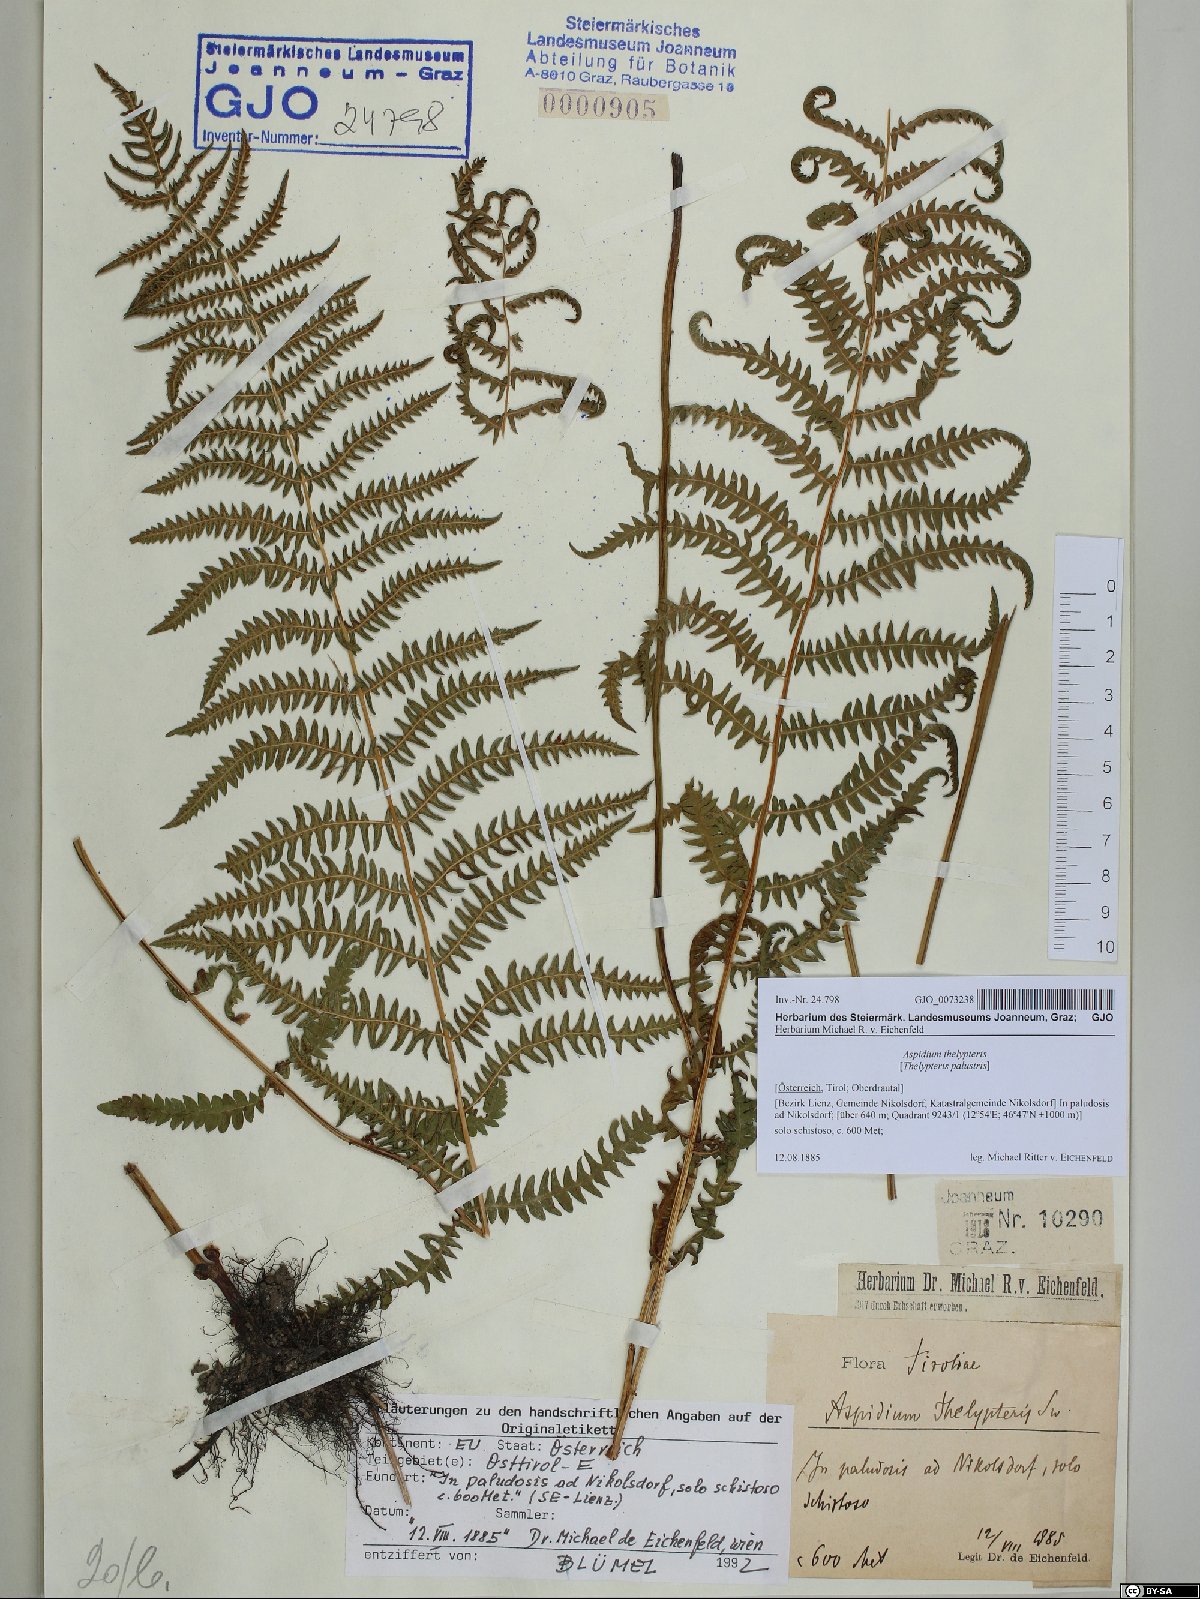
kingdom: Plantae
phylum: Tracheophyta
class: Polypodiopsida
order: Polypodiales
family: Thelypteridaceae
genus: Thelypteris
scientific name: Thelypteris palustris
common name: Marsh fern
